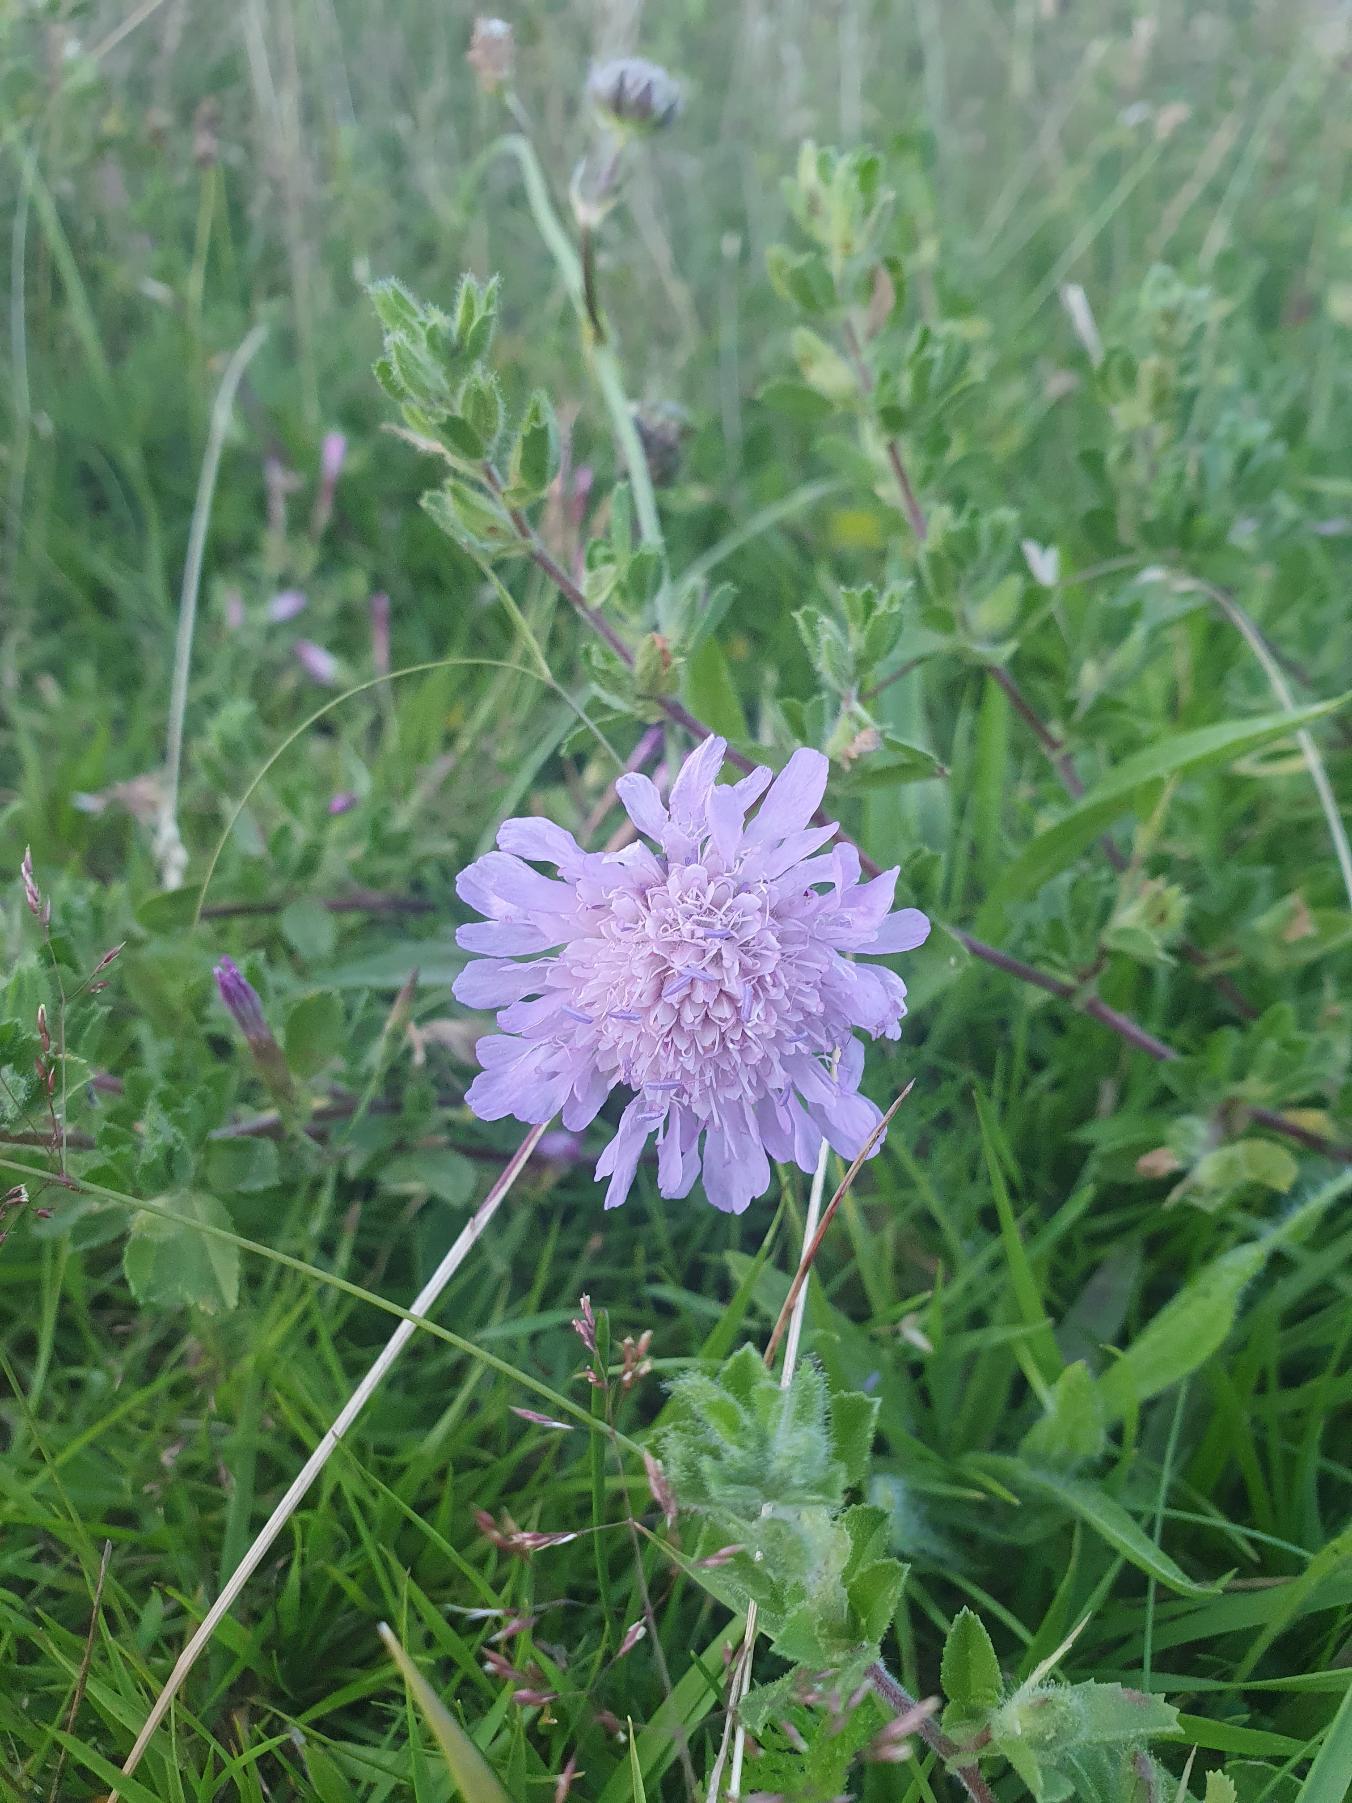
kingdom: Plantae
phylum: Tracheophyta
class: Magnoliopsida
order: Dipsacales
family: Caprifoliaceae
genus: Knautia
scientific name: Knautia arvensis
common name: Blåhat
